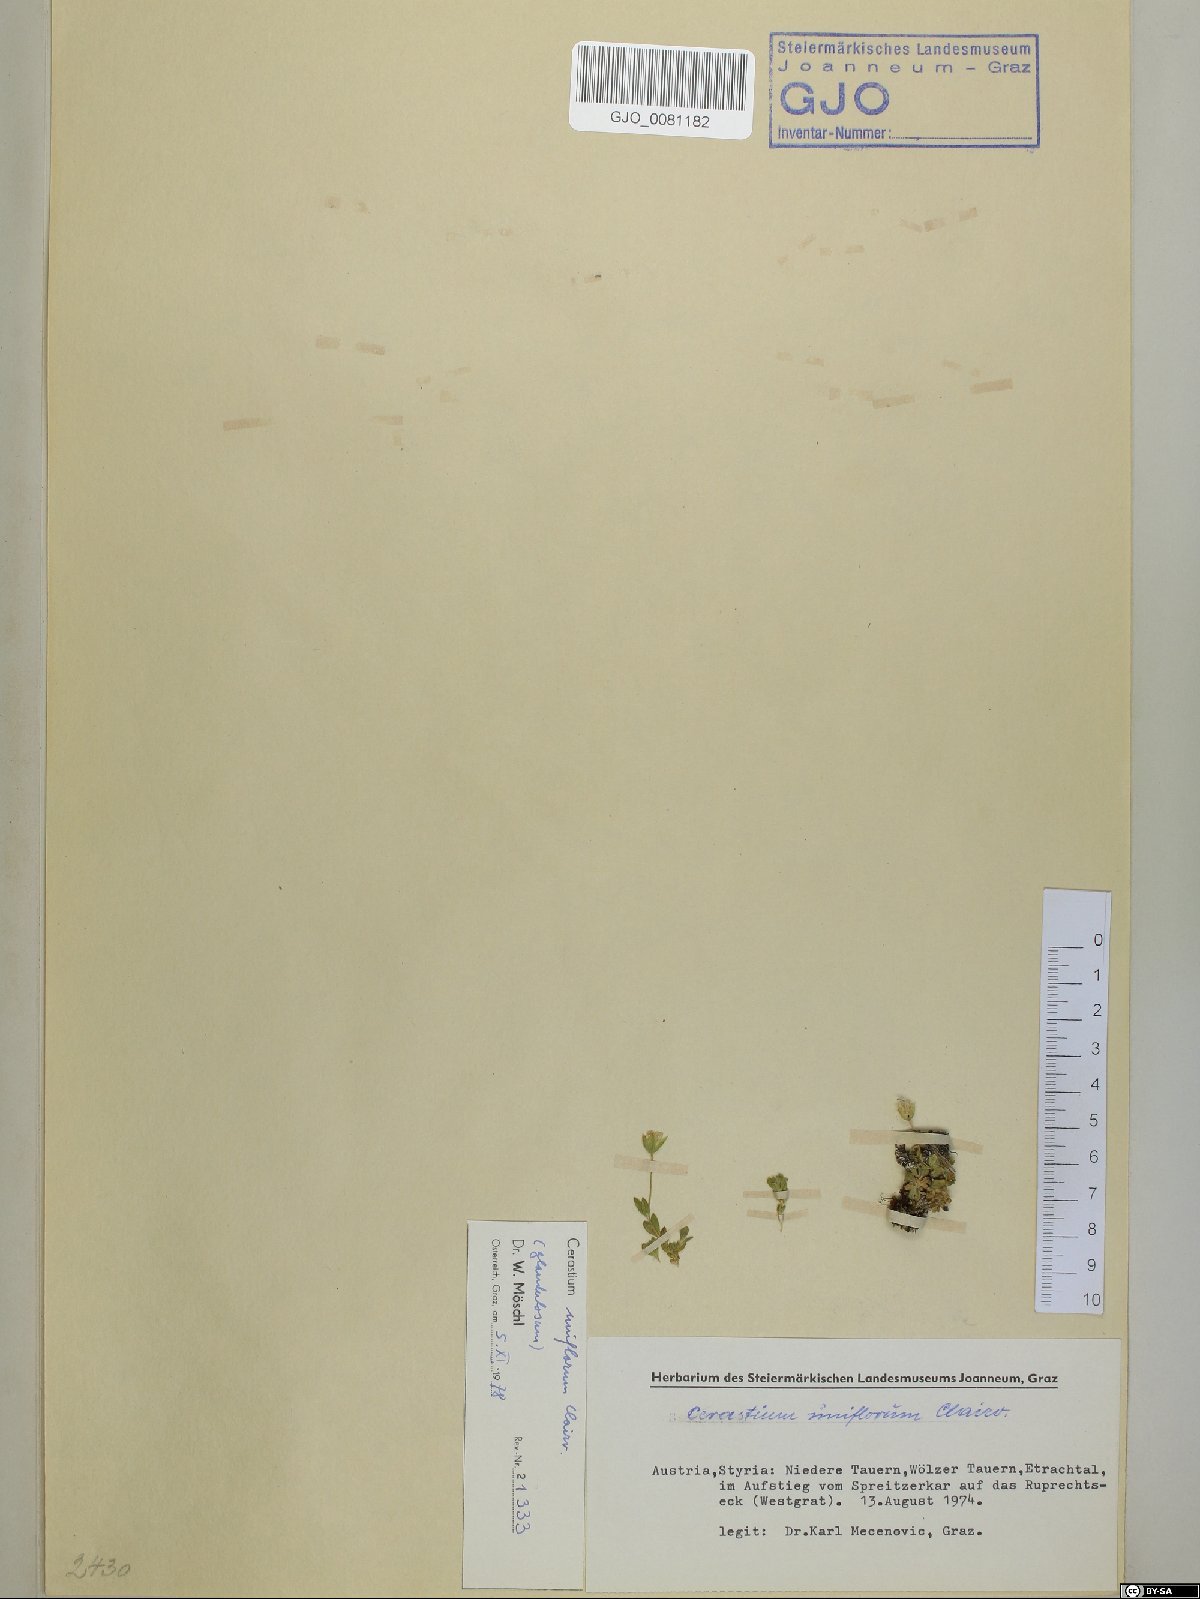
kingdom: Plantae
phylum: Tracheophyta
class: Magnoliopsida
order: Caryophyllales
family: Caryophyllaceae
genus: Cerastium
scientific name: Cerastium uniflorum
